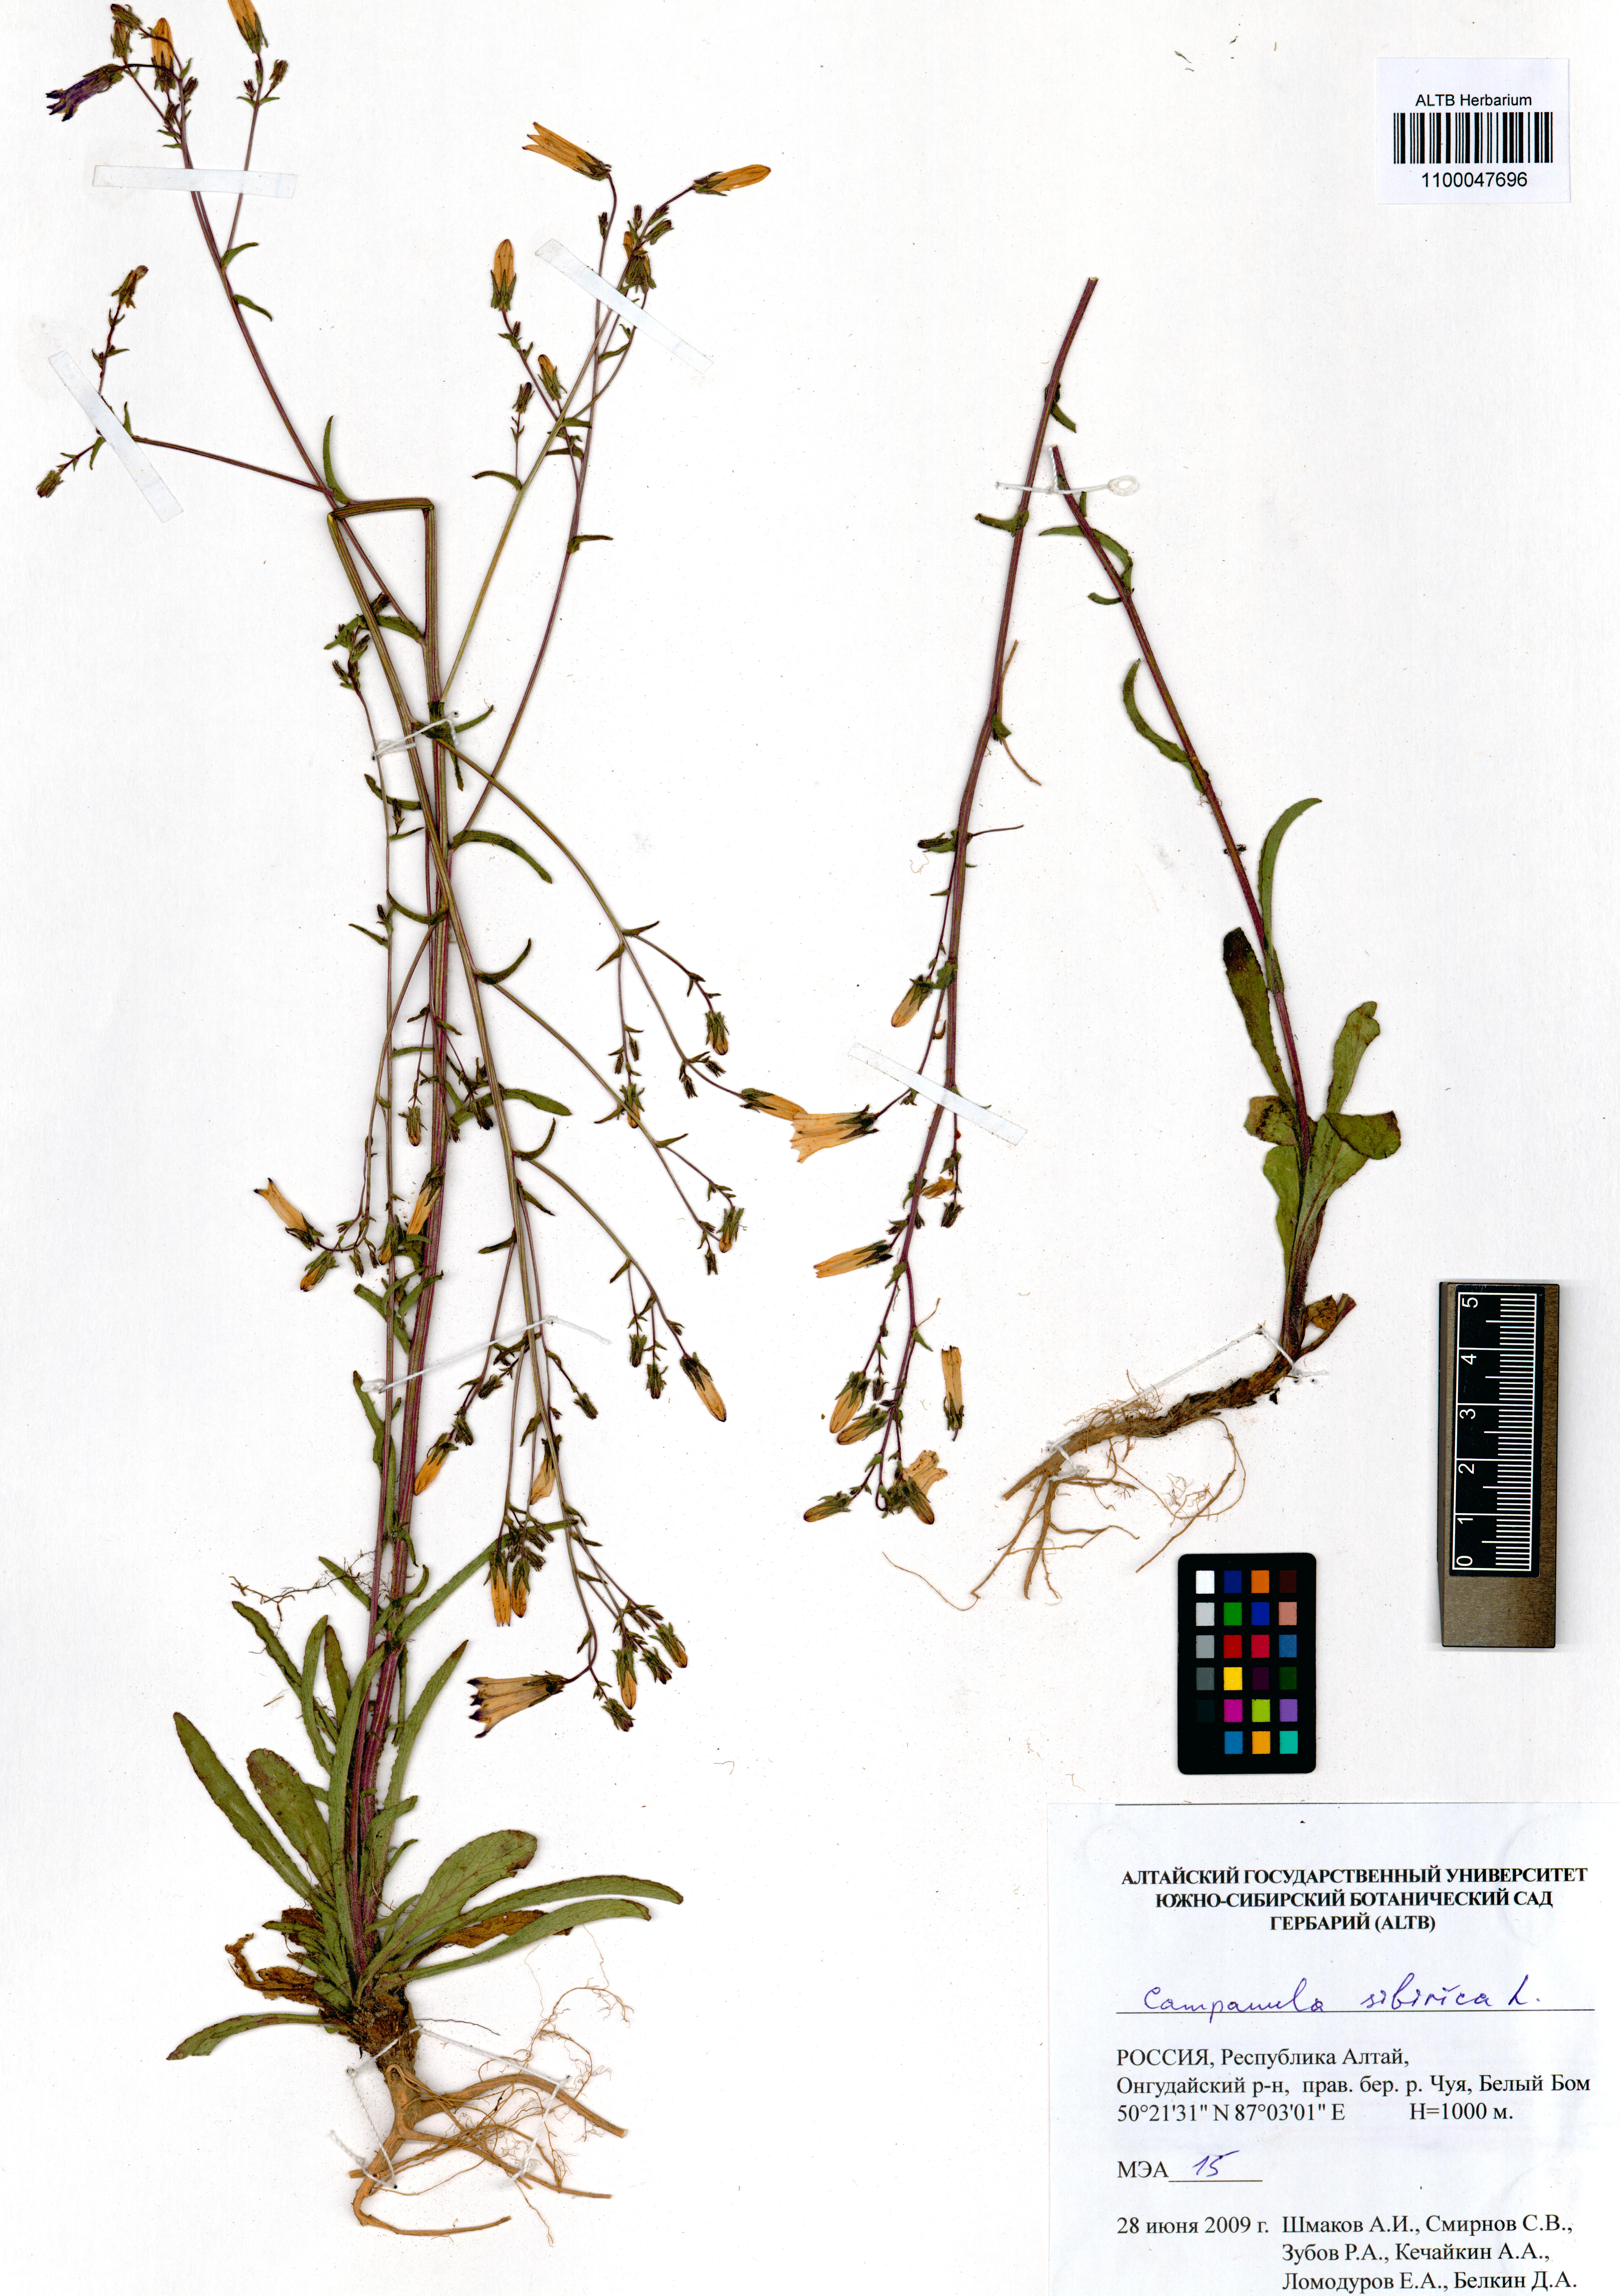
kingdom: Plantae
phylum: Tracheophyta
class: Magnoliopsida
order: Asterales
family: Campanulaceae
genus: Campanula
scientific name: Campanula sibirica
